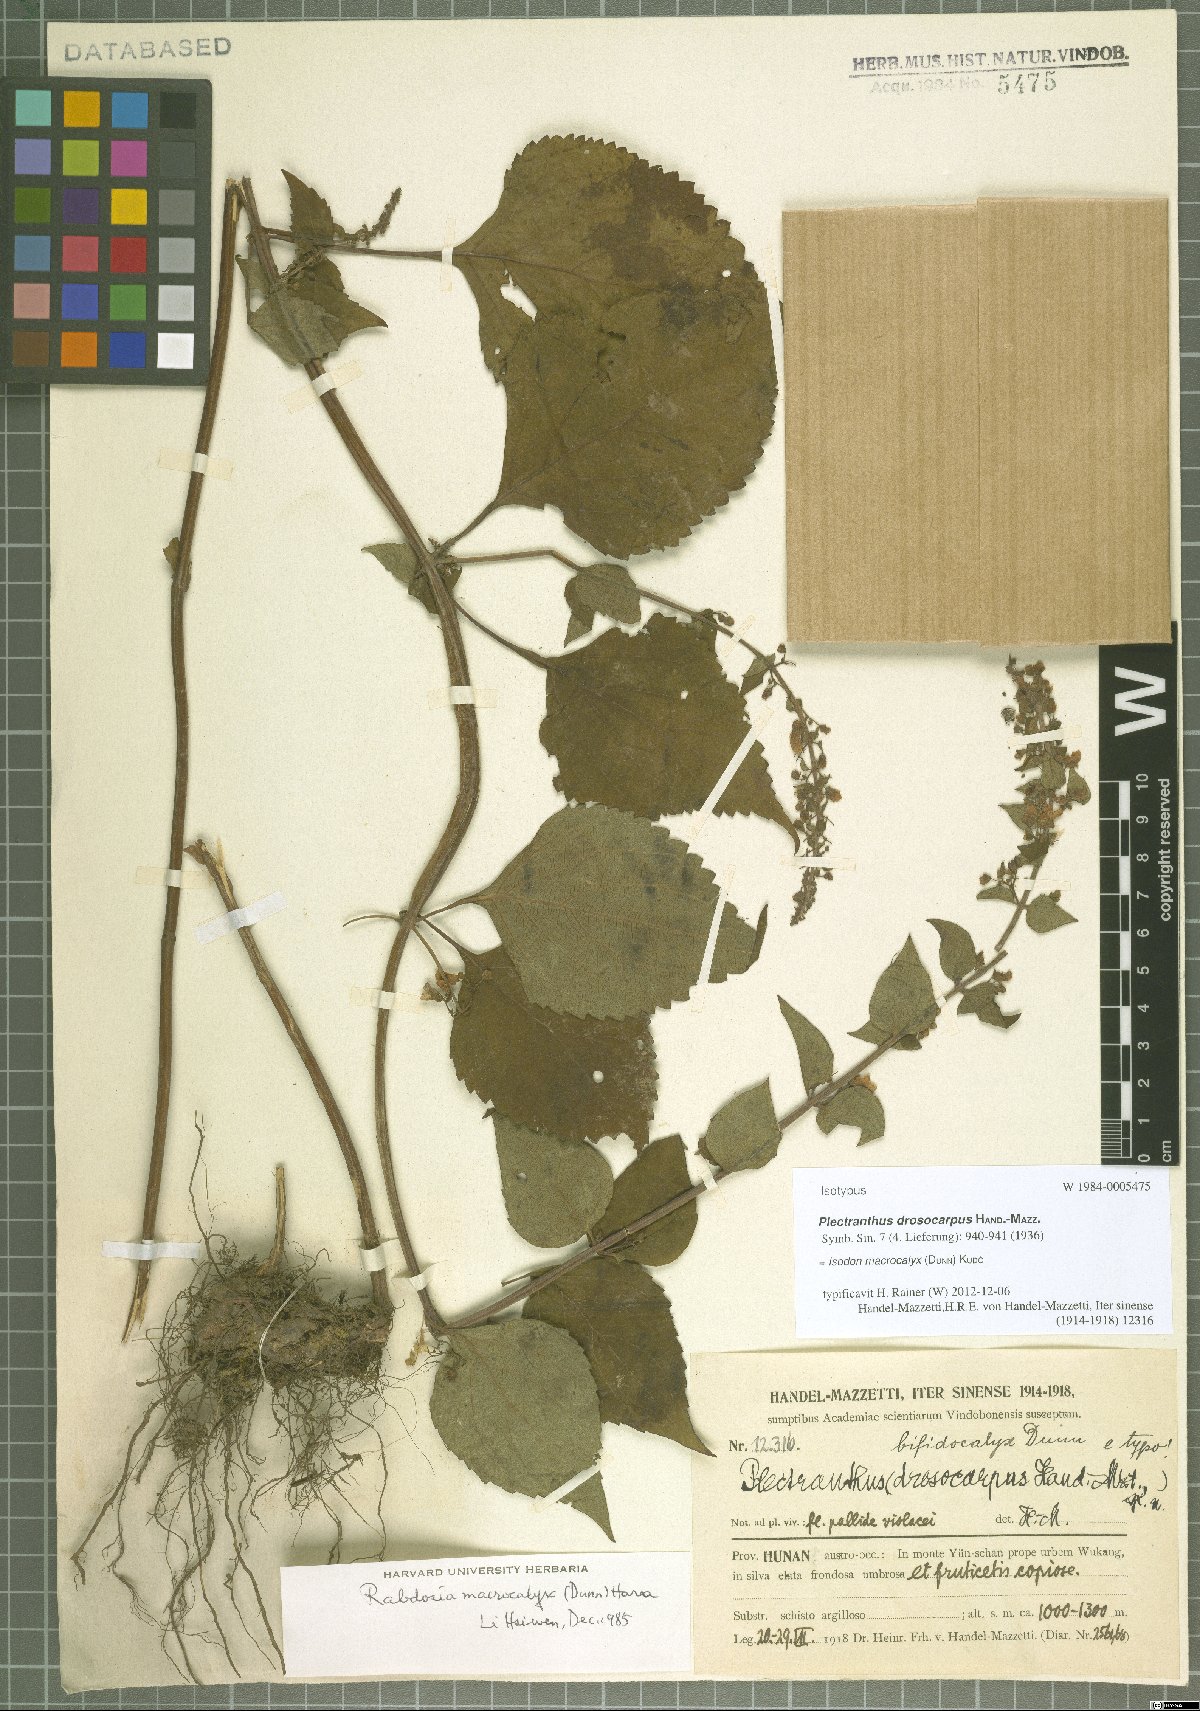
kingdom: Plantae
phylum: Tracheophyta
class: Magnoliopsida
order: Lamiales
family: Lamiaceae
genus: Isodon
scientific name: Isodon macrocalyx
